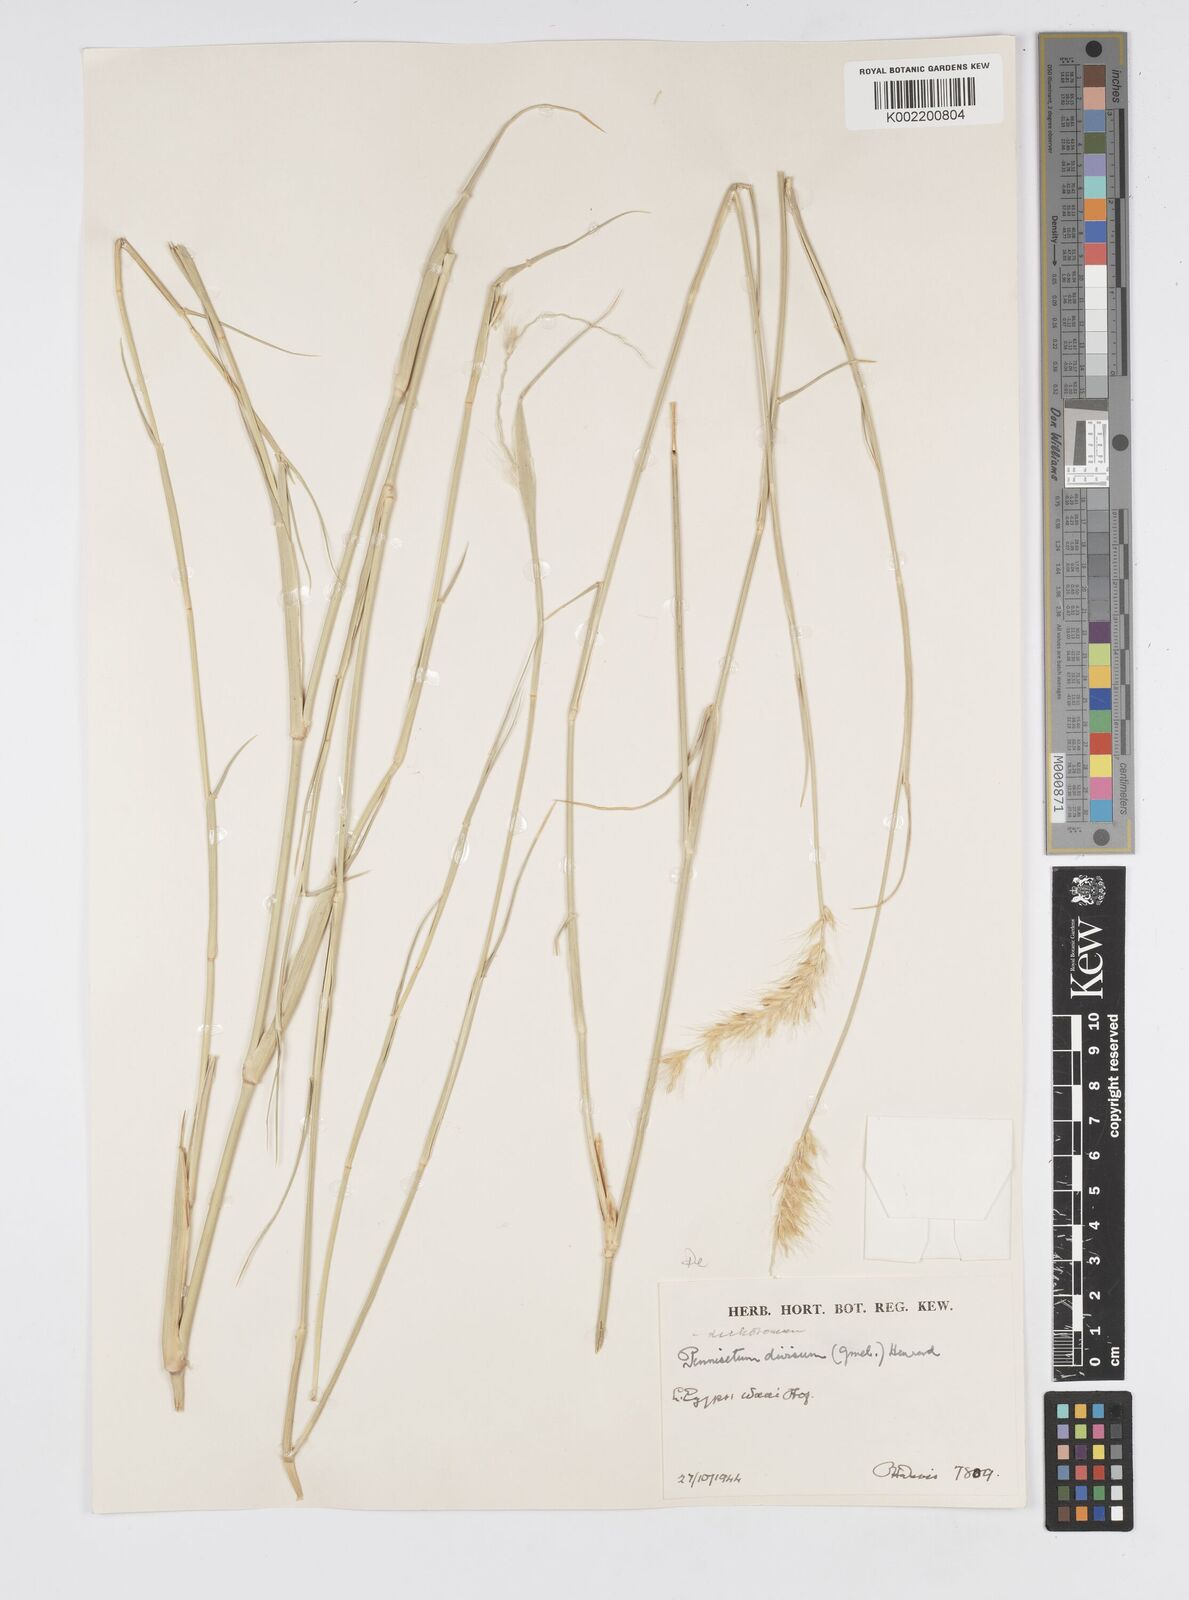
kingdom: Plantae
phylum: Tracheophyta
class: Liliopsida
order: Poales
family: Poaceae
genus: Cenchrus
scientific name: Cenchrus divisus
